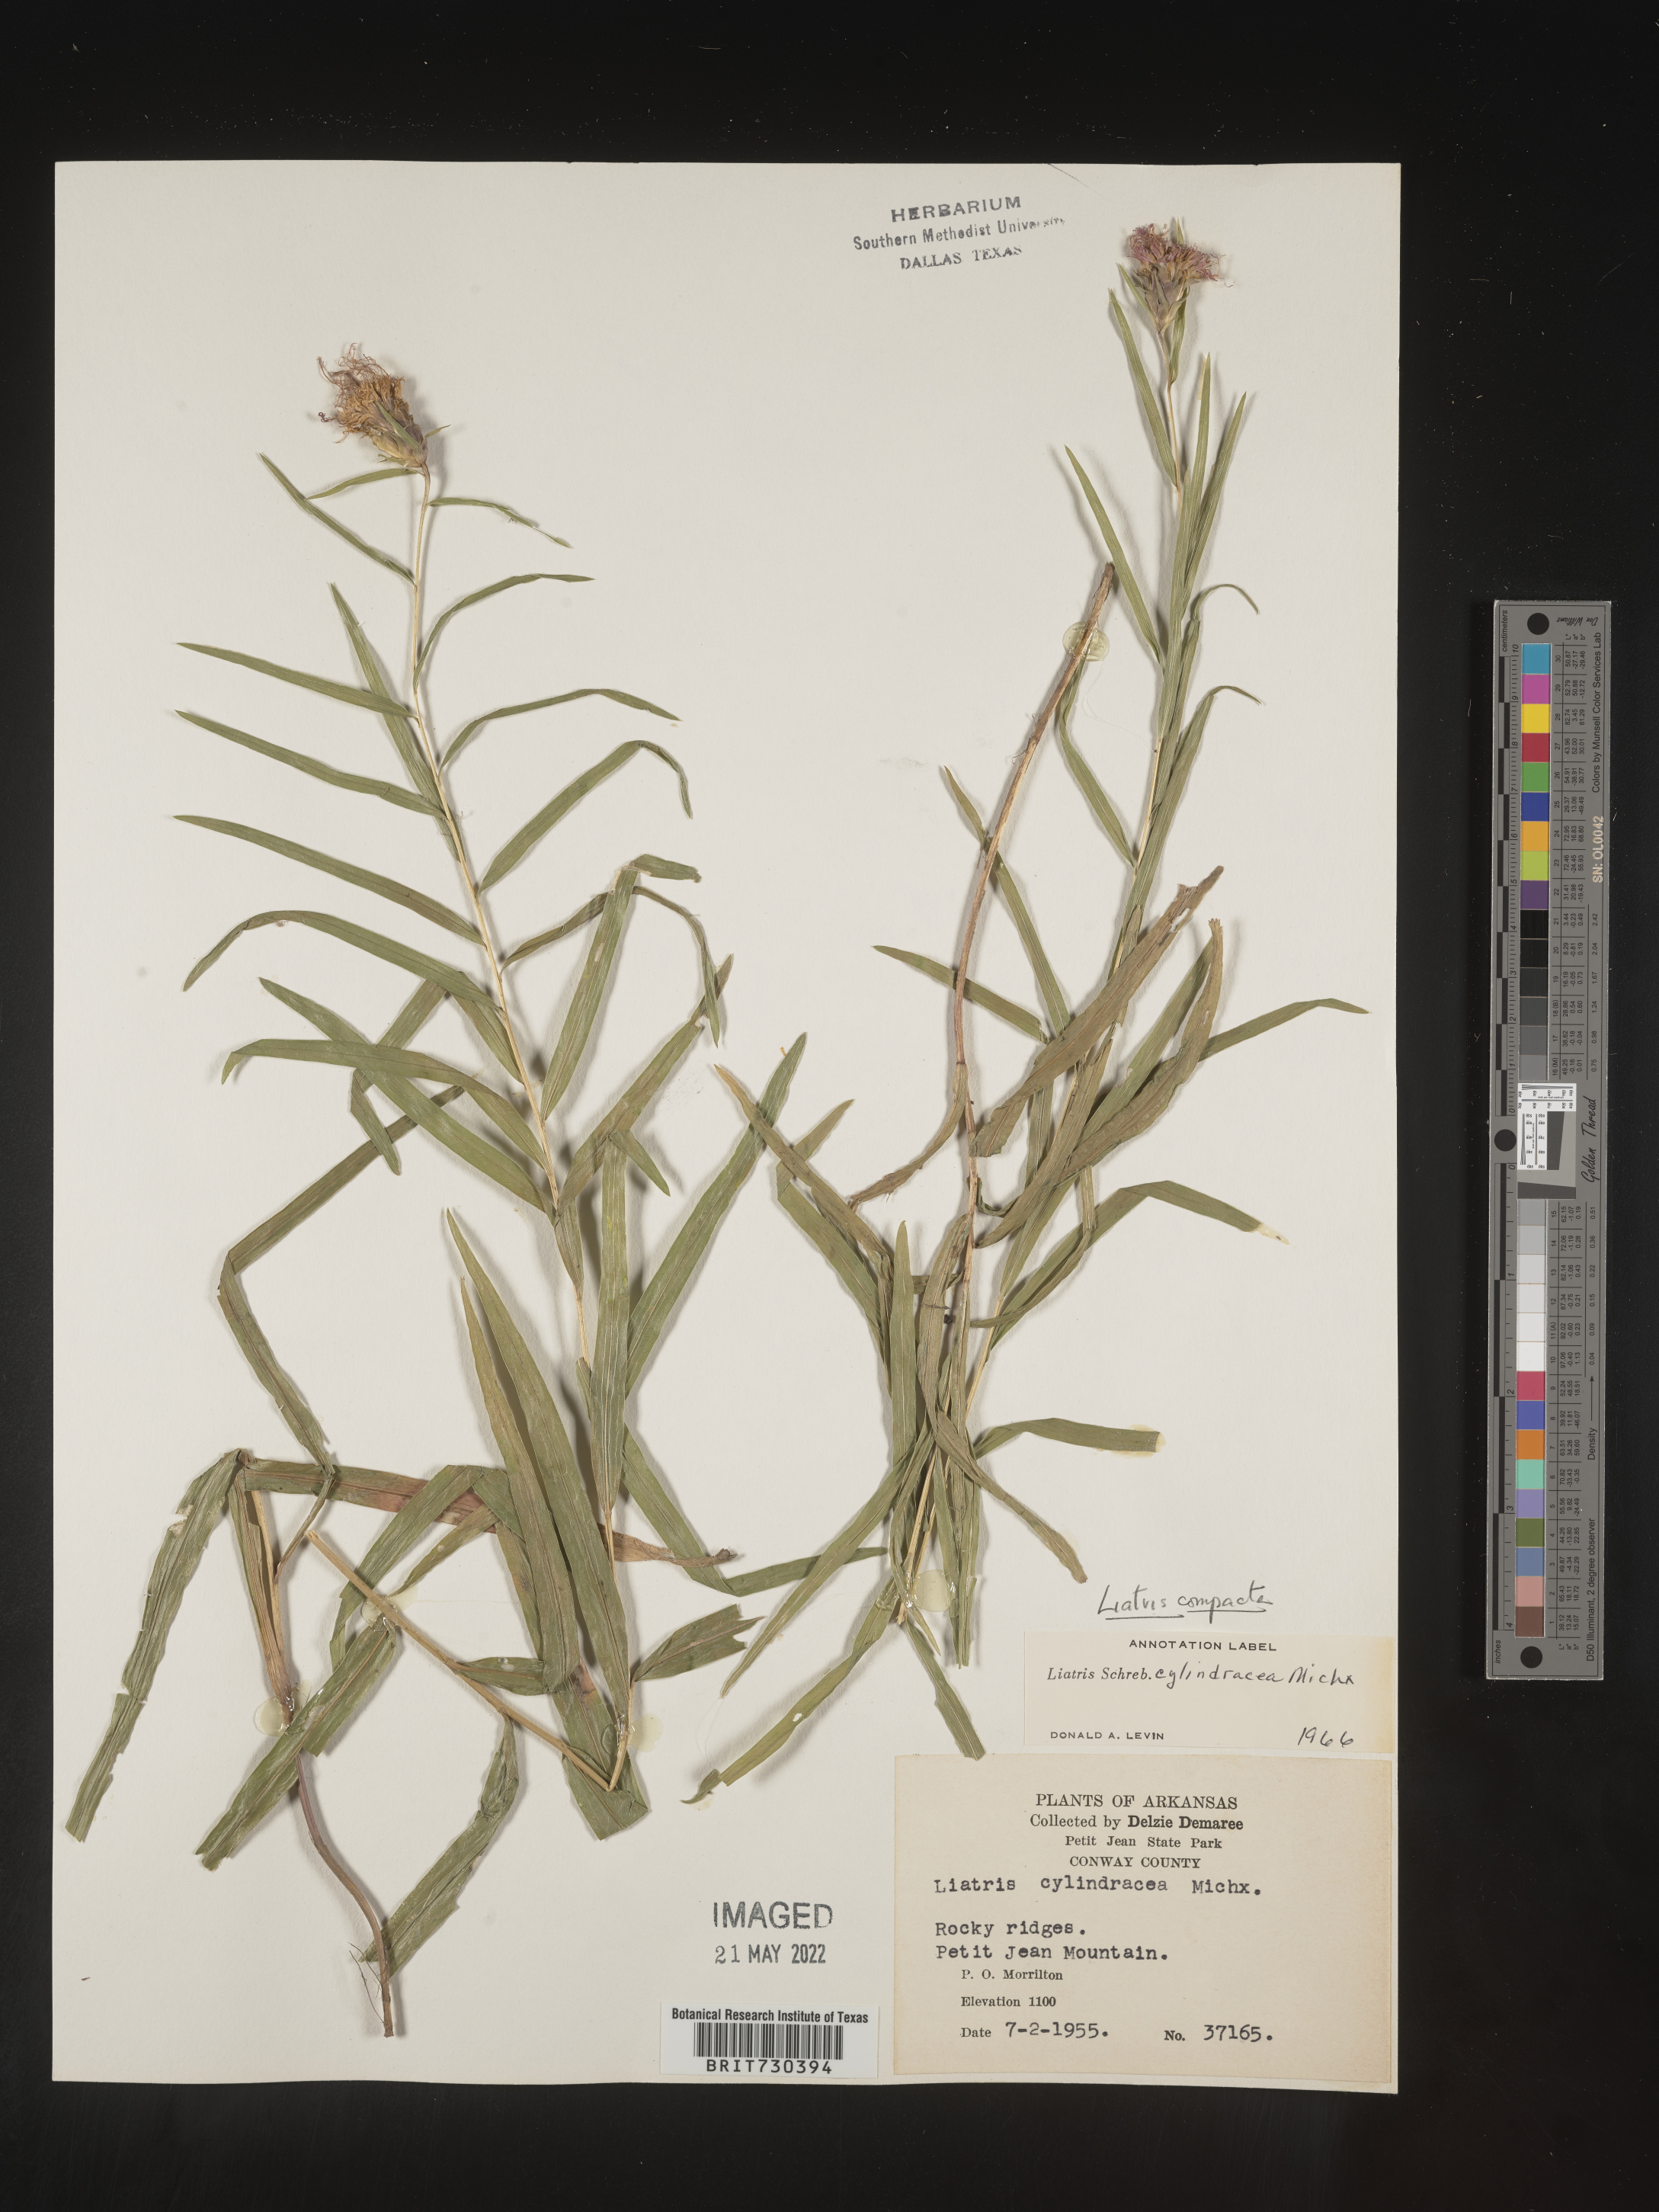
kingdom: Plantae
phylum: Tracheophyta
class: Magnoliopsida
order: Asterales
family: Asteraceae
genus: Liatris
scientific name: Liatris compacta
